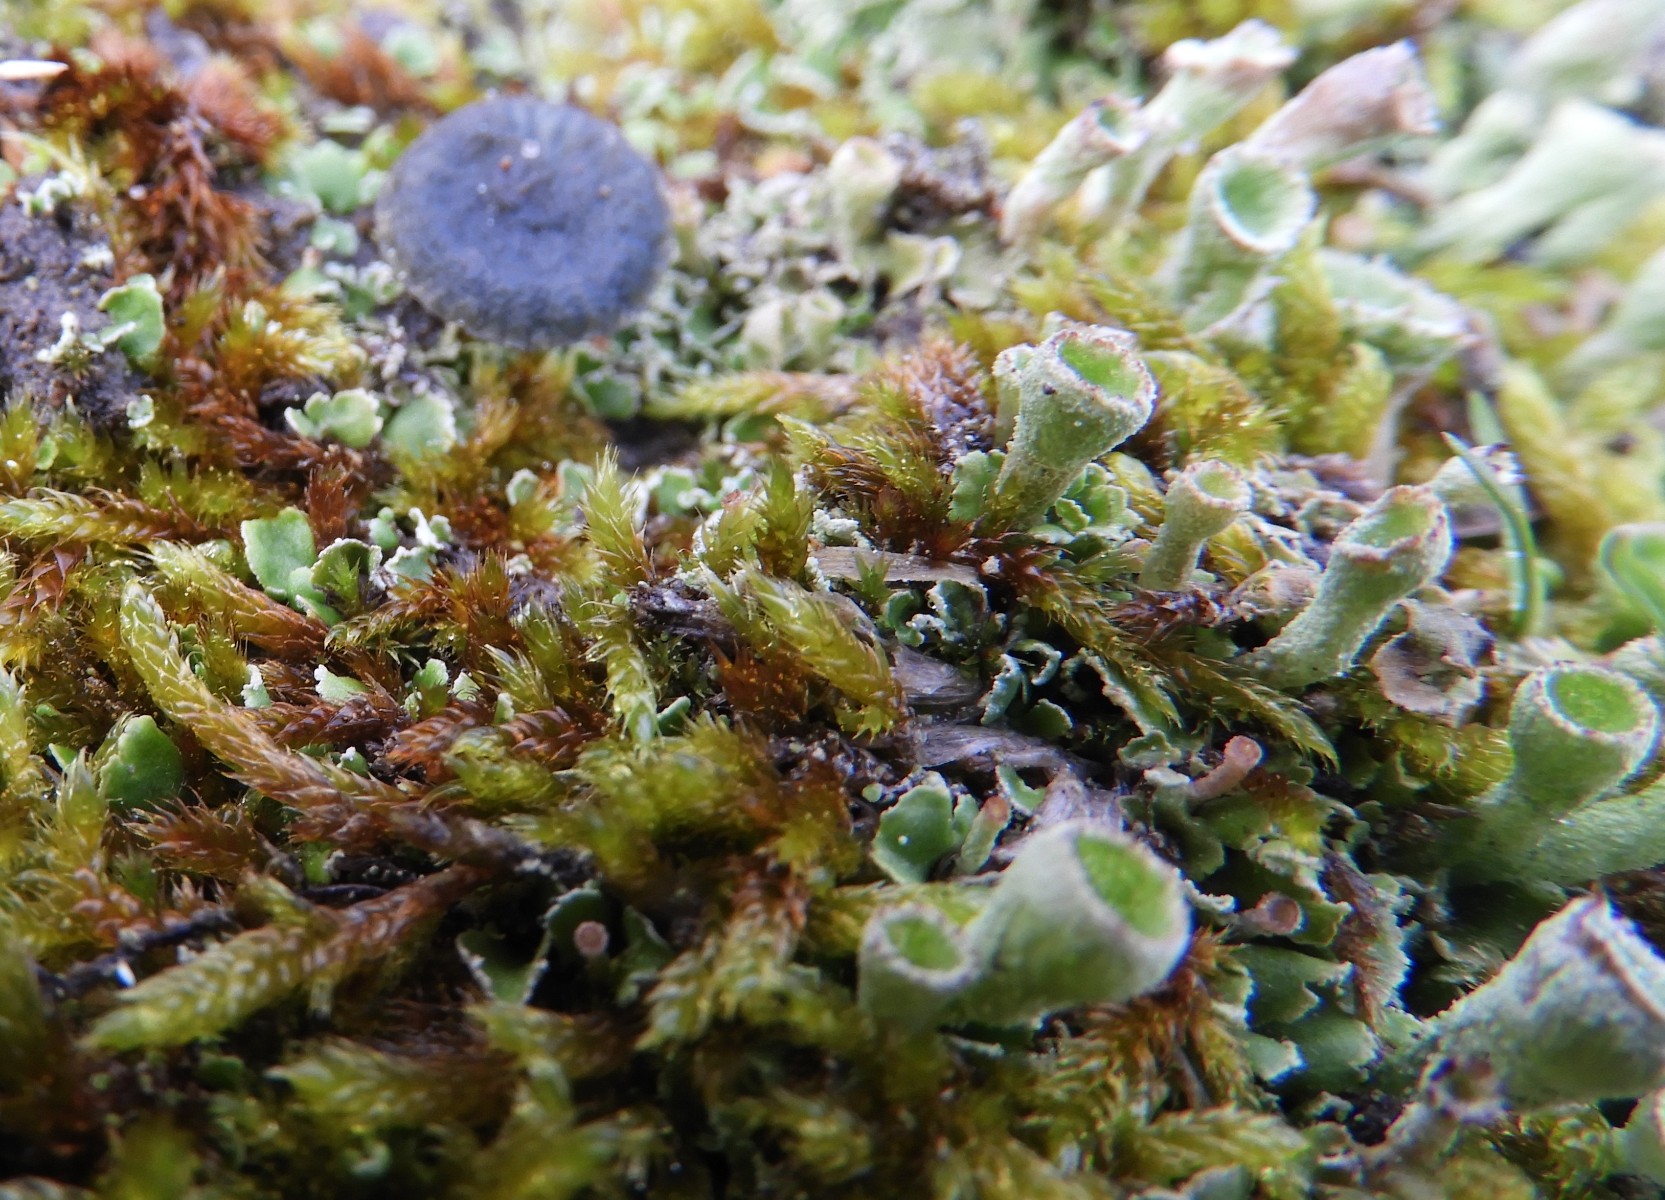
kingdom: Fungi
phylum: Ascomycota
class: Lecanoromycetes
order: Lecanorales
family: Cladoniaceae
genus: Cladonia
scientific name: Cladonia
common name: brungrøn bægerlav
